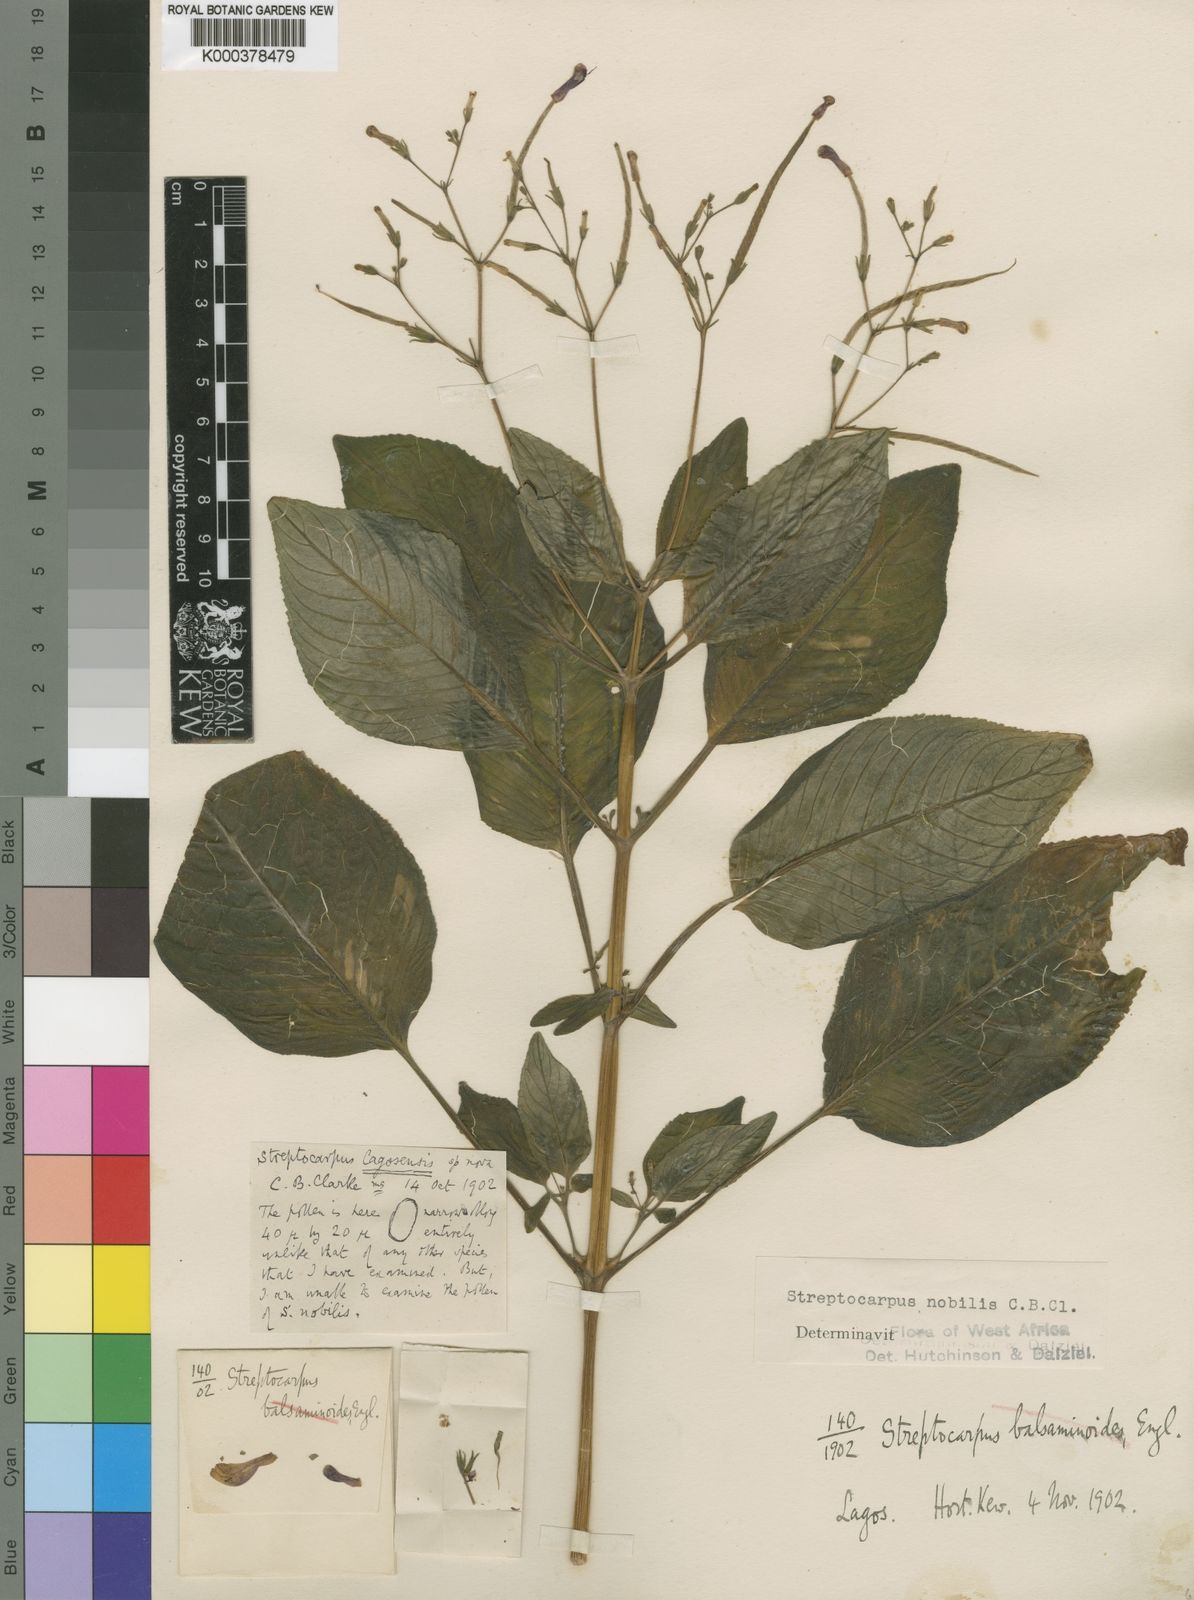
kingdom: Plantae
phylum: Tracheophyta
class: Magnoliopsida
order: Lamiales
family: Gesneriaceae
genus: Streptocarpus
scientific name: Streptocarpus nobilis
